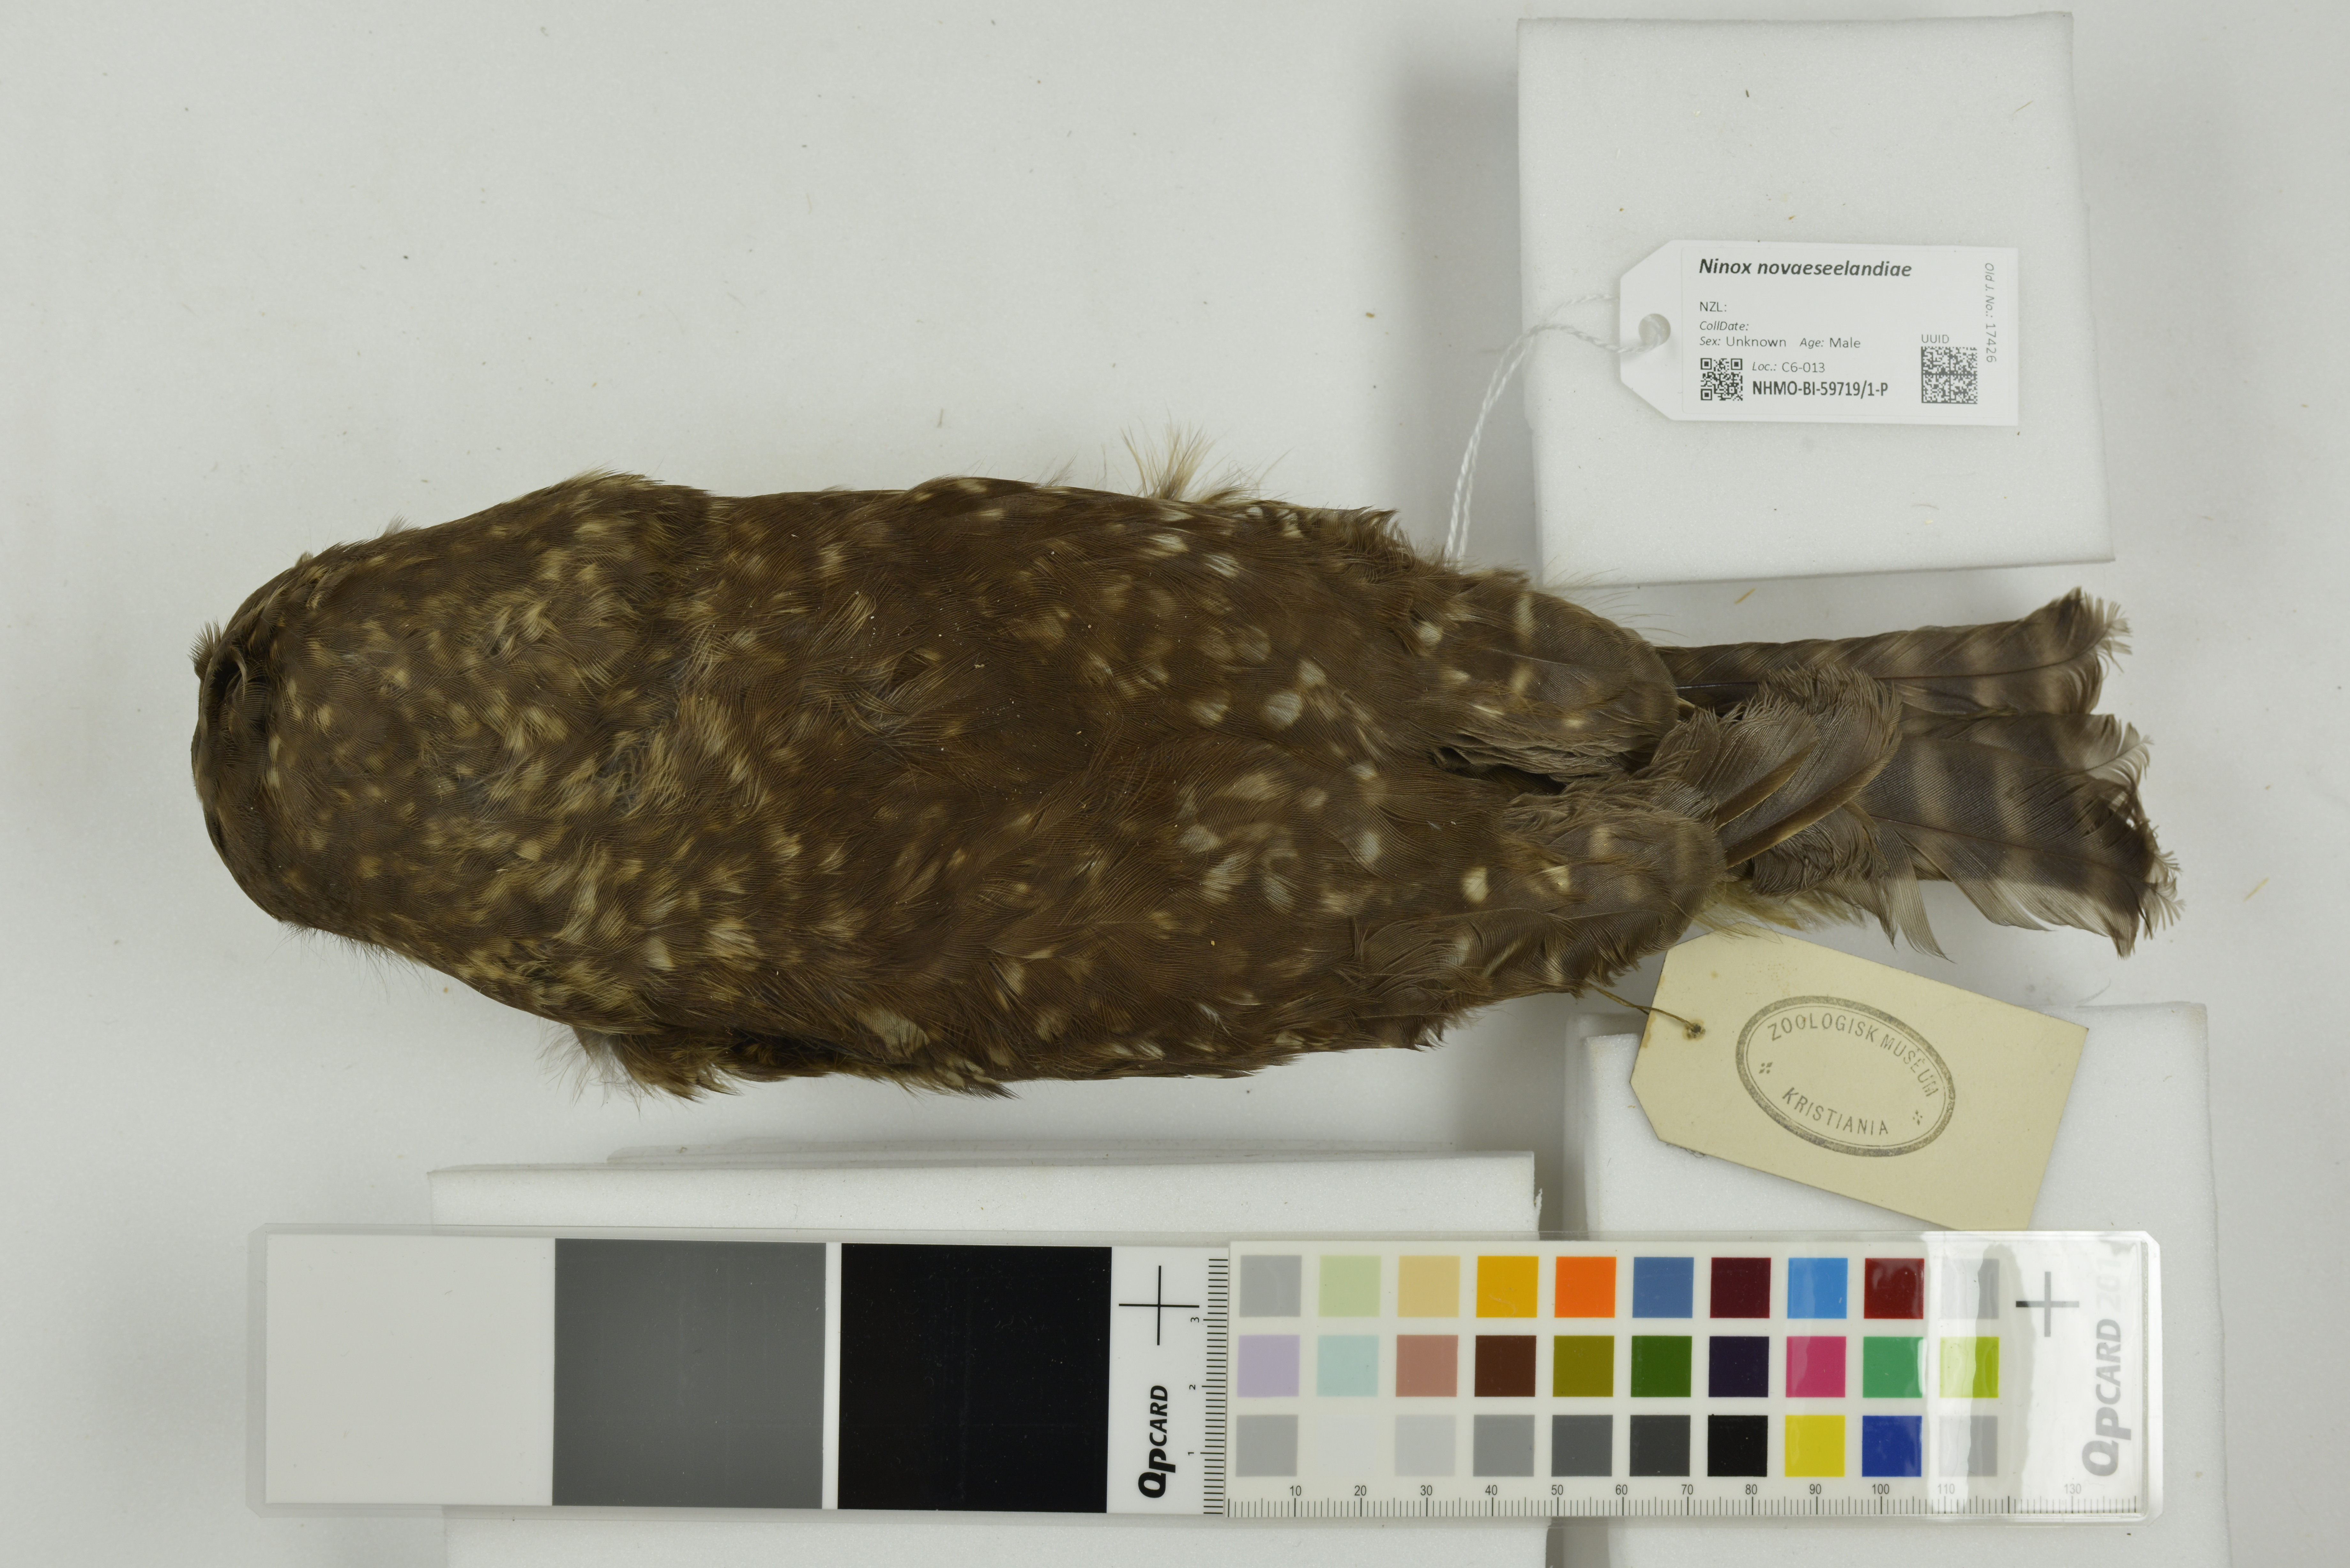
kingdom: Animalia
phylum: Chordata
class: Aves
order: Strigiformes
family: Strigidae
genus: Ninox
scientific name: Ninox novaeseelandiae
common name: Morepork
